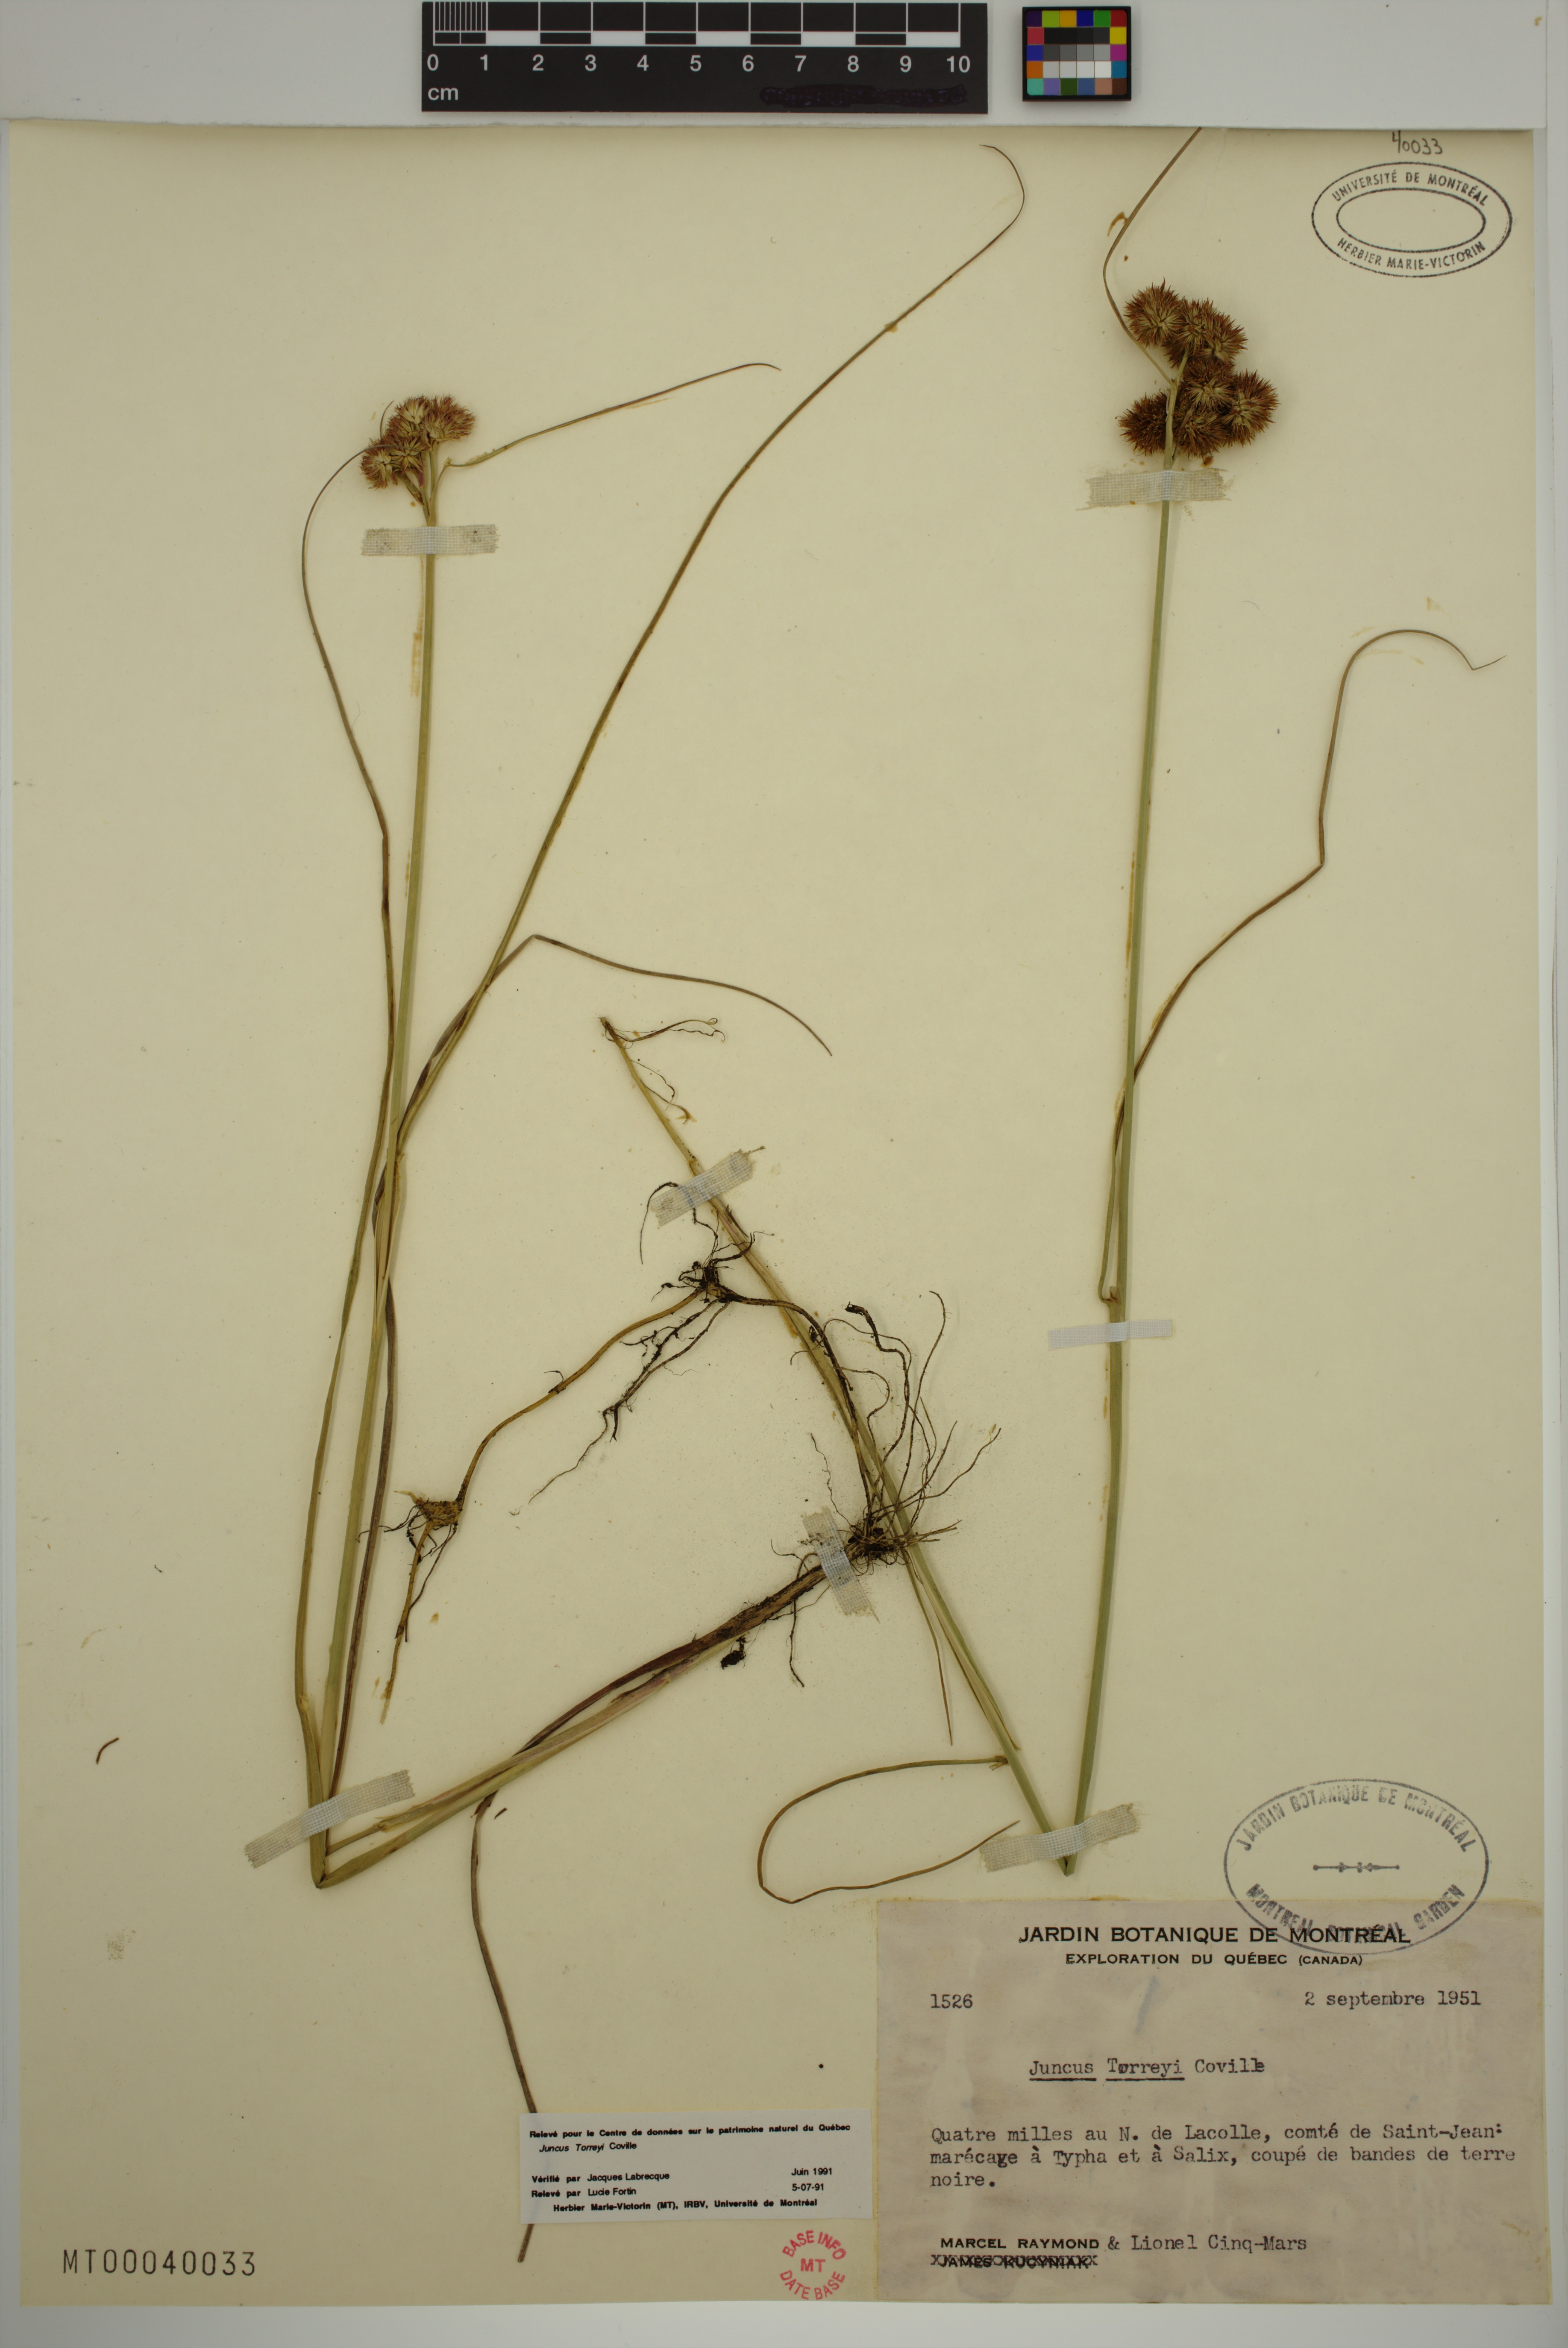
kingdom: Plantae
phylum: Tracheophyta
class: Liliopsida
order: Poales
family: Juncaceae
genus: Juncus
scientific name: Juncus torreyi
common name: Torrey's rush
